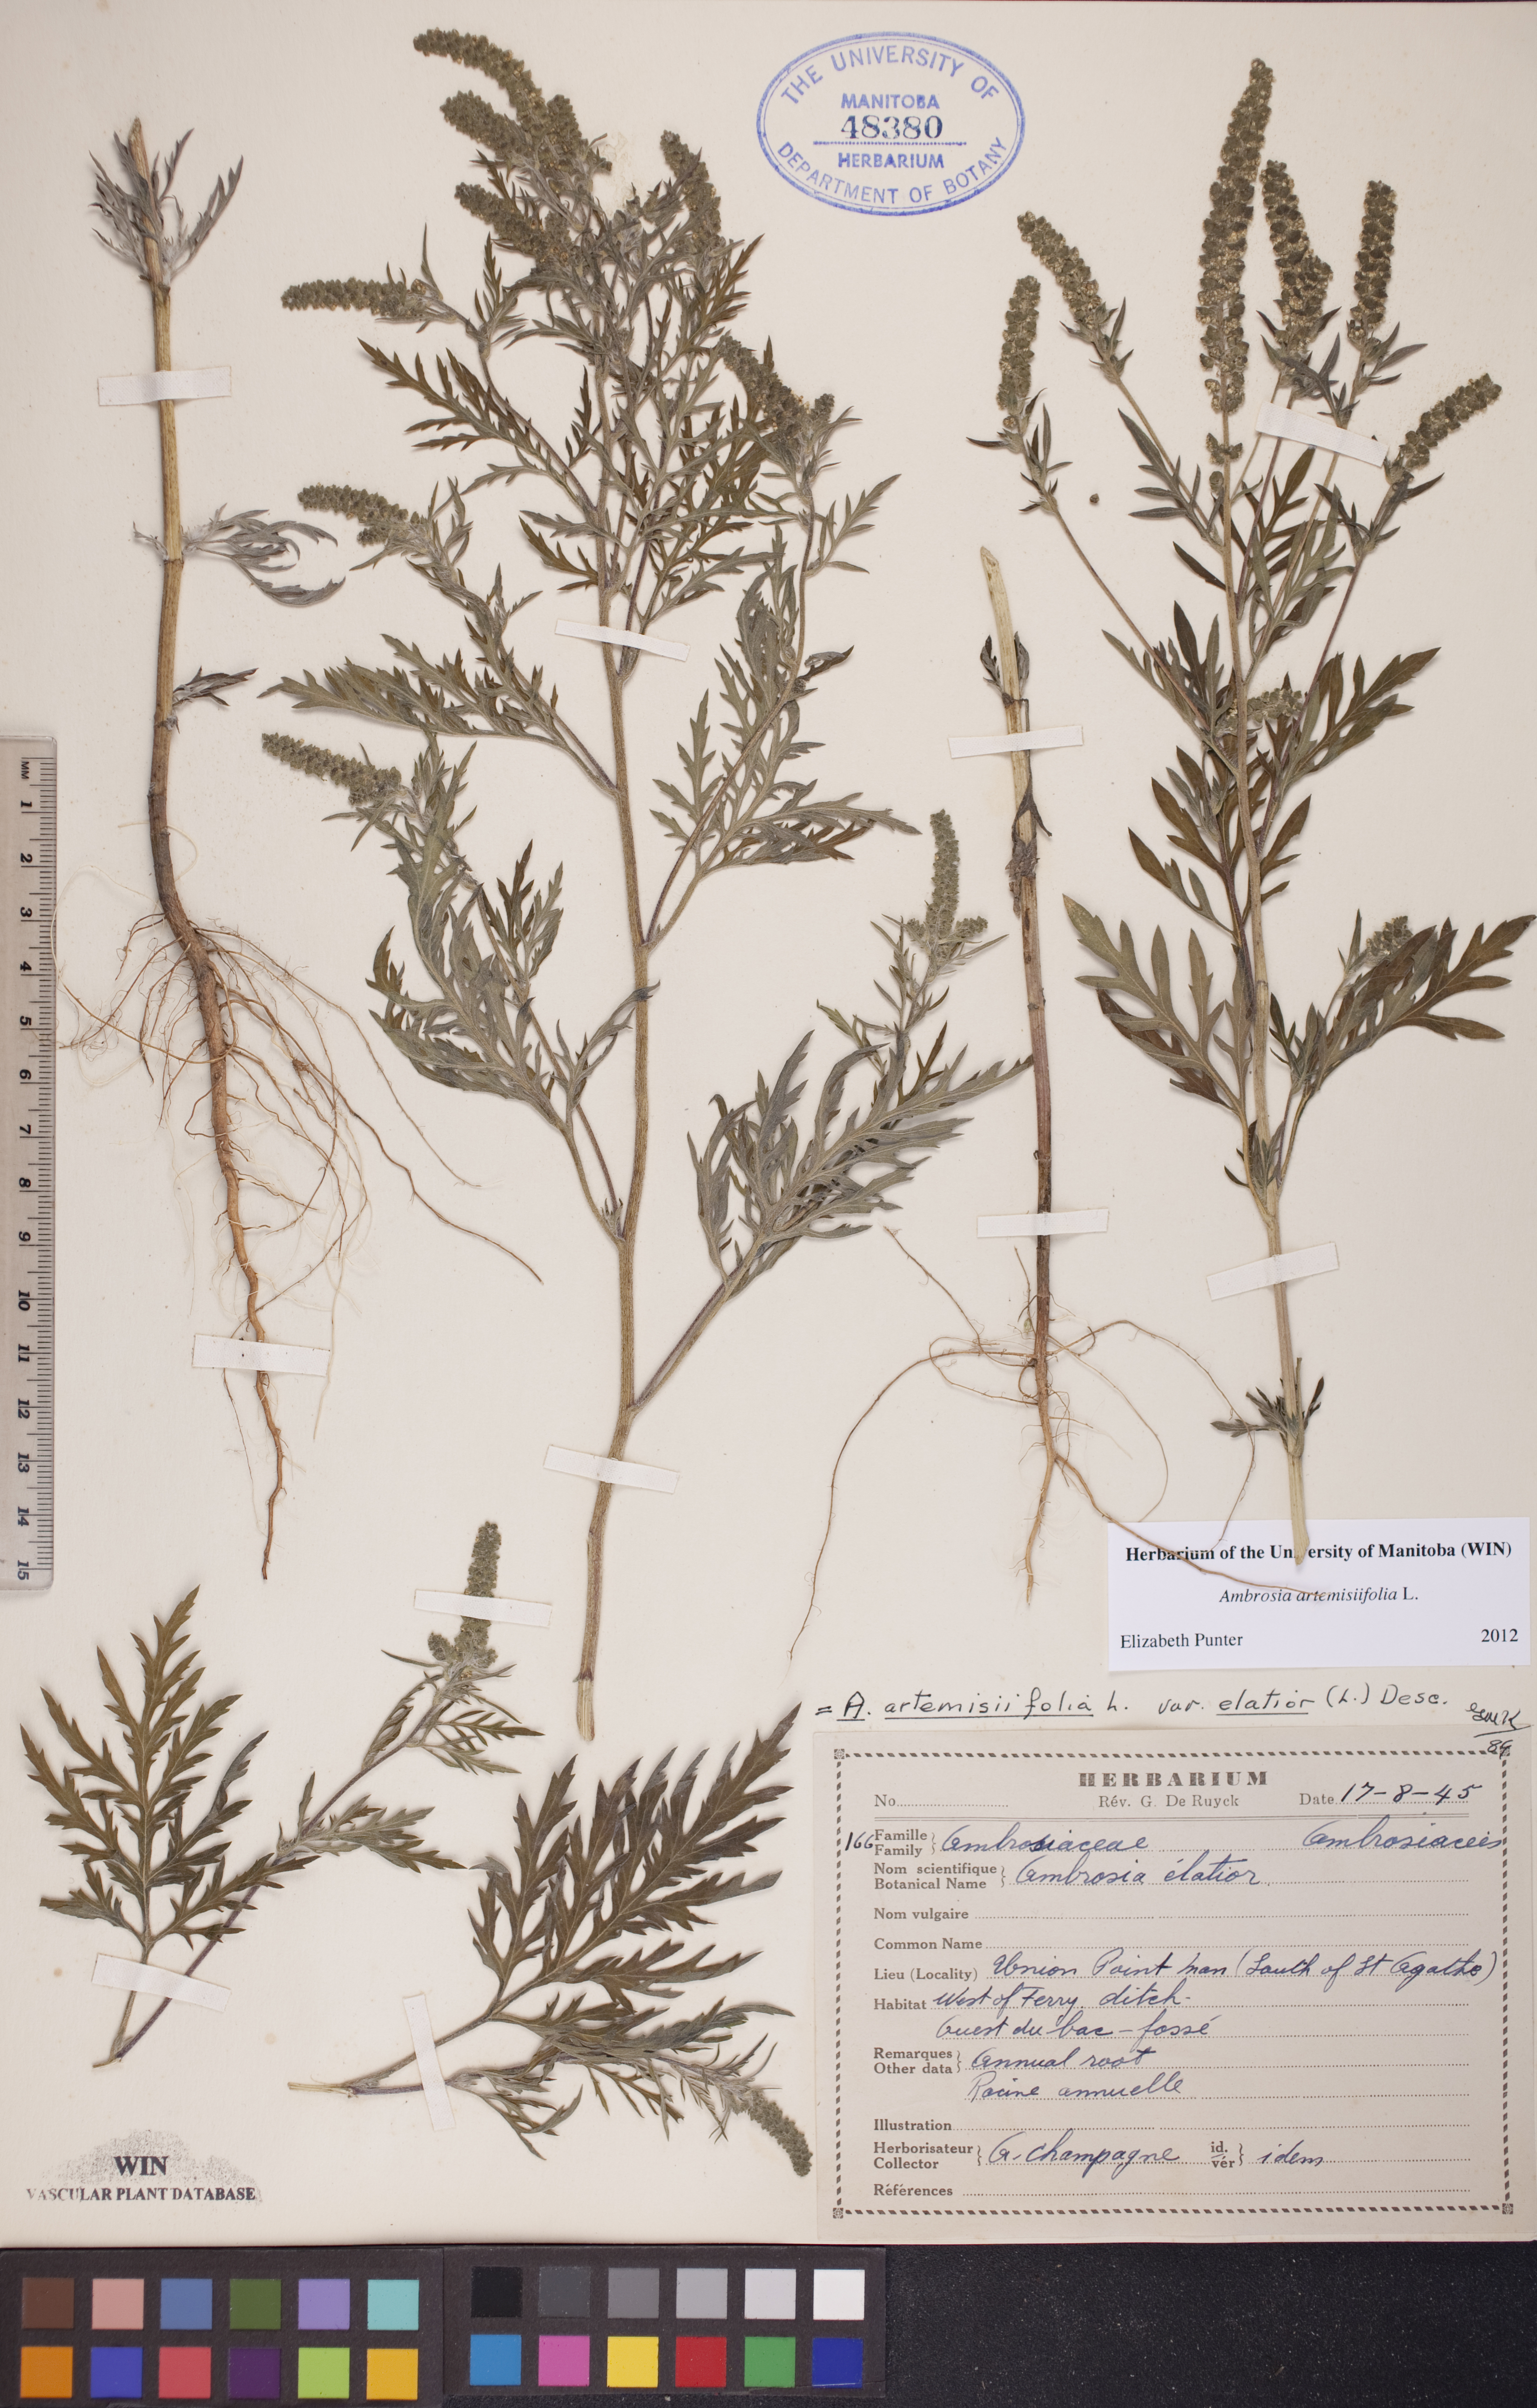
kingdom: Plantae
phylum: Tracheophyta
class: Magnoliopsida
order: Asterales
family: Asteraceae
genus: Ambrosia
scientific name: Ambrosia artemisiifolia
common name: Annual ragweed
